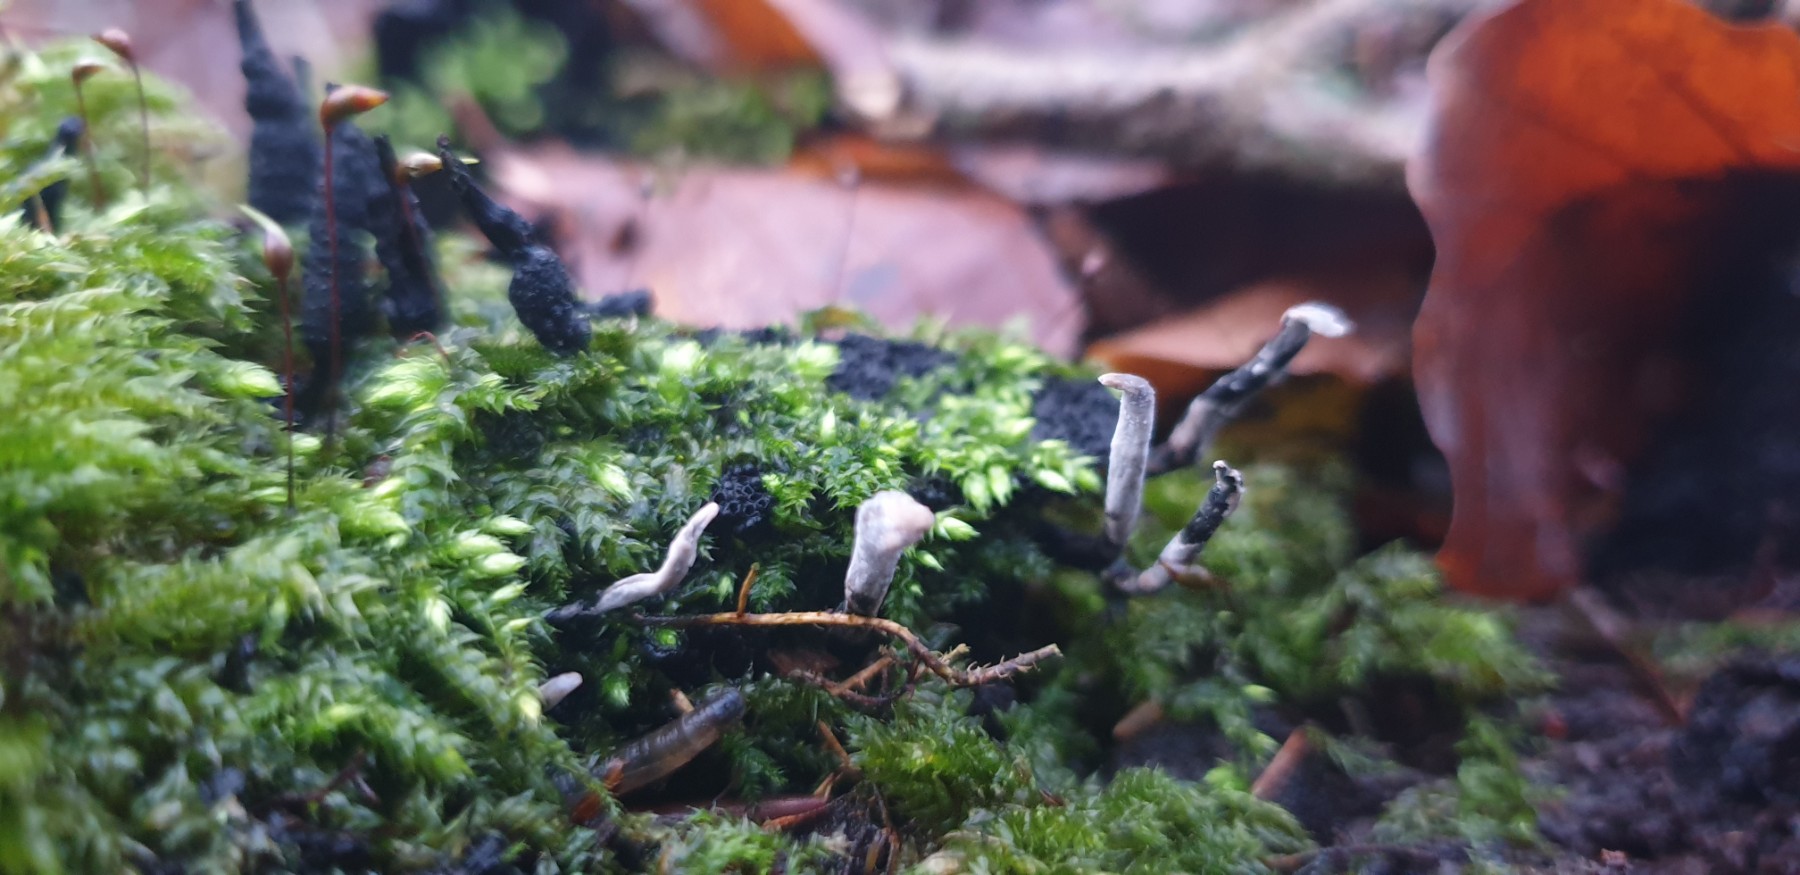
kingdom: Fungi
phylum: Ascomycota
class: Sordariomycetes
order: Xylariales
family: Xylariaceae
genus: Xylaria
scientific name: Xylaria hypoxylon
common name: grenet stødsvamp
